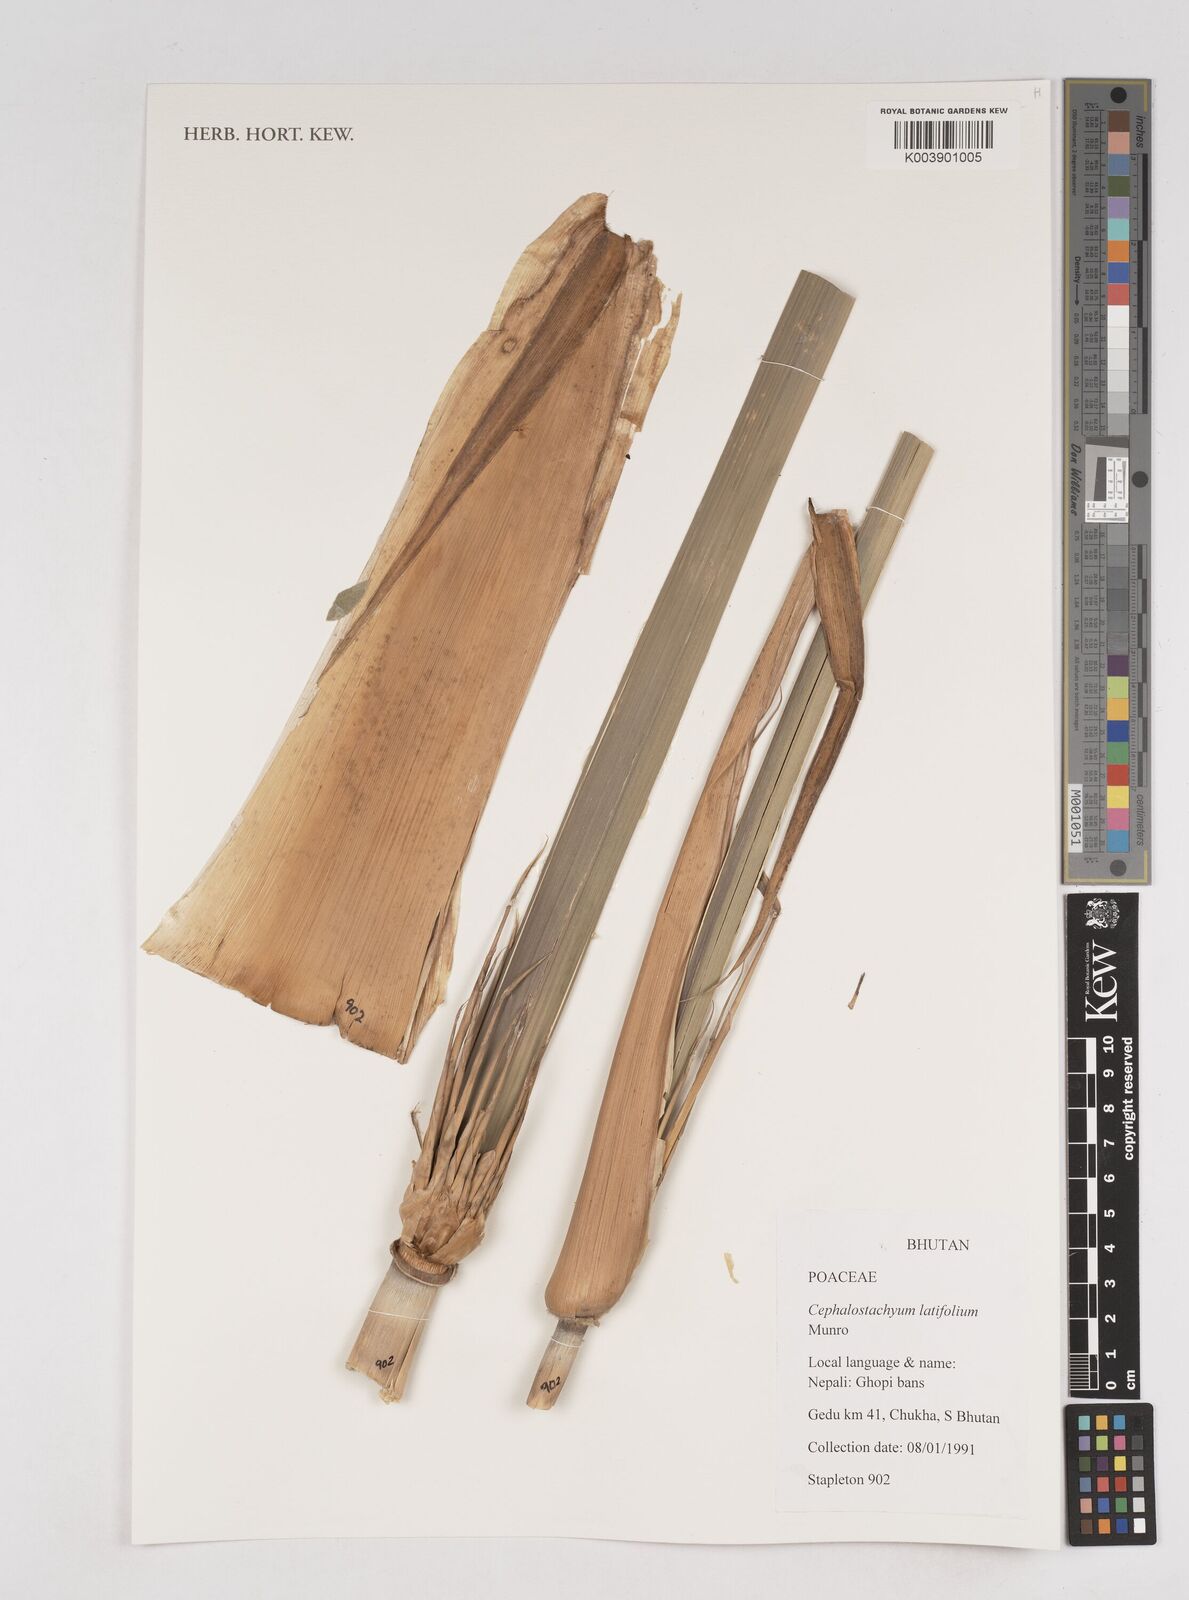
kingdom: Plantae
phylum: Tracheophyta
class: Liliopsida
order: Poales
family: Poaceae
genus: Cephalostachyum
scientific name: Cephalostachyum latifolium
